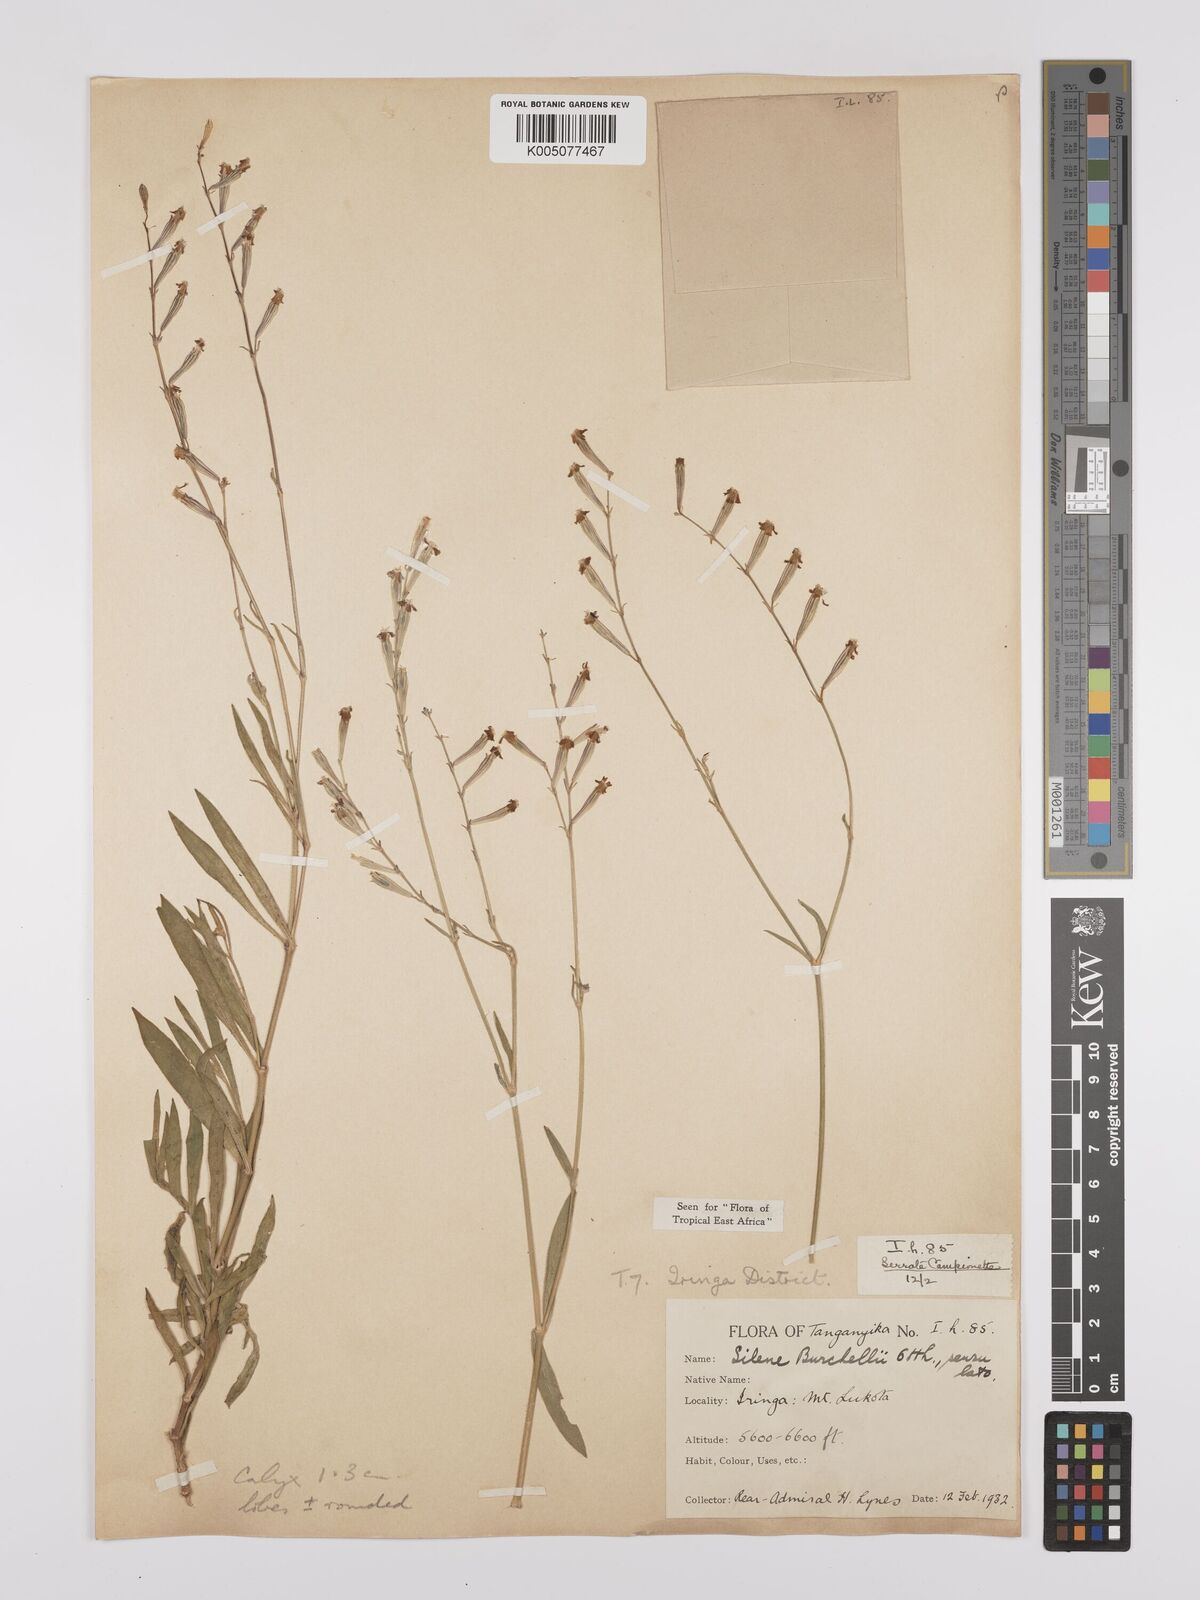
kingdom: Plantae
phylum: Tracheophyta
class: Magnoliopsida
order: Caryophyllales
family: Caryophyllaceae
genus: Silene
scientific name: Silene burchellii
